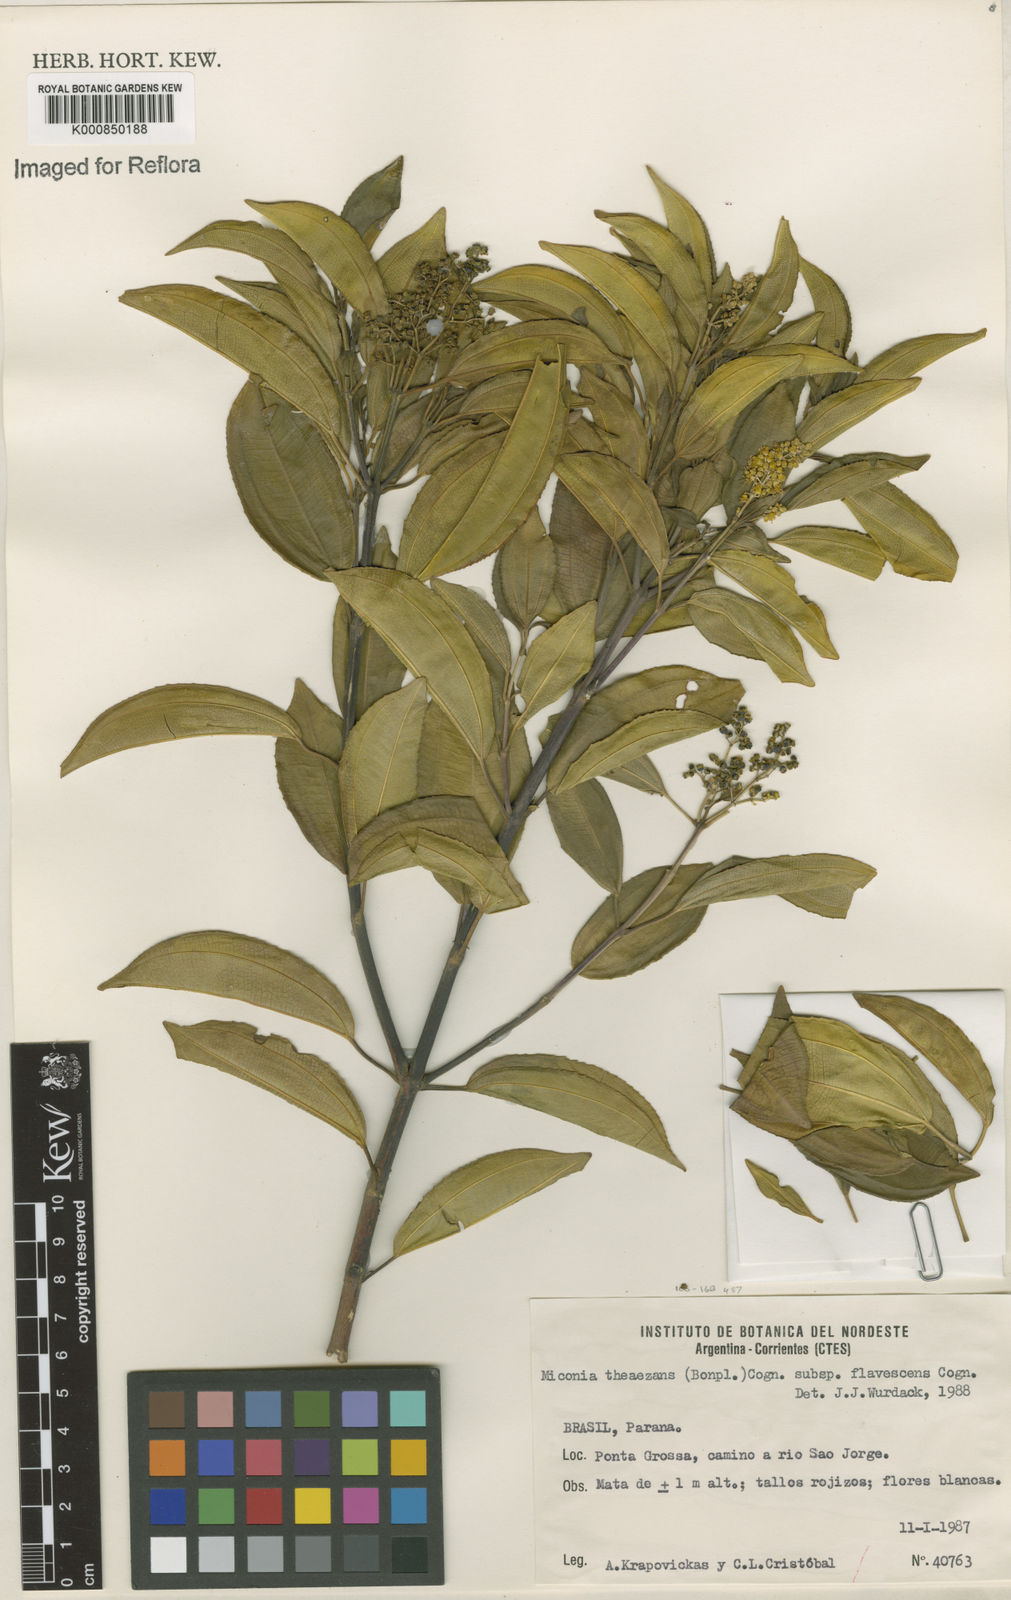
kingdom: Plantae
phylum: Tracheophyta
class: Magnoliopsida
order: Myrtales
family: Melastomataceae
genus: Miconia
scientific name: Miconia
